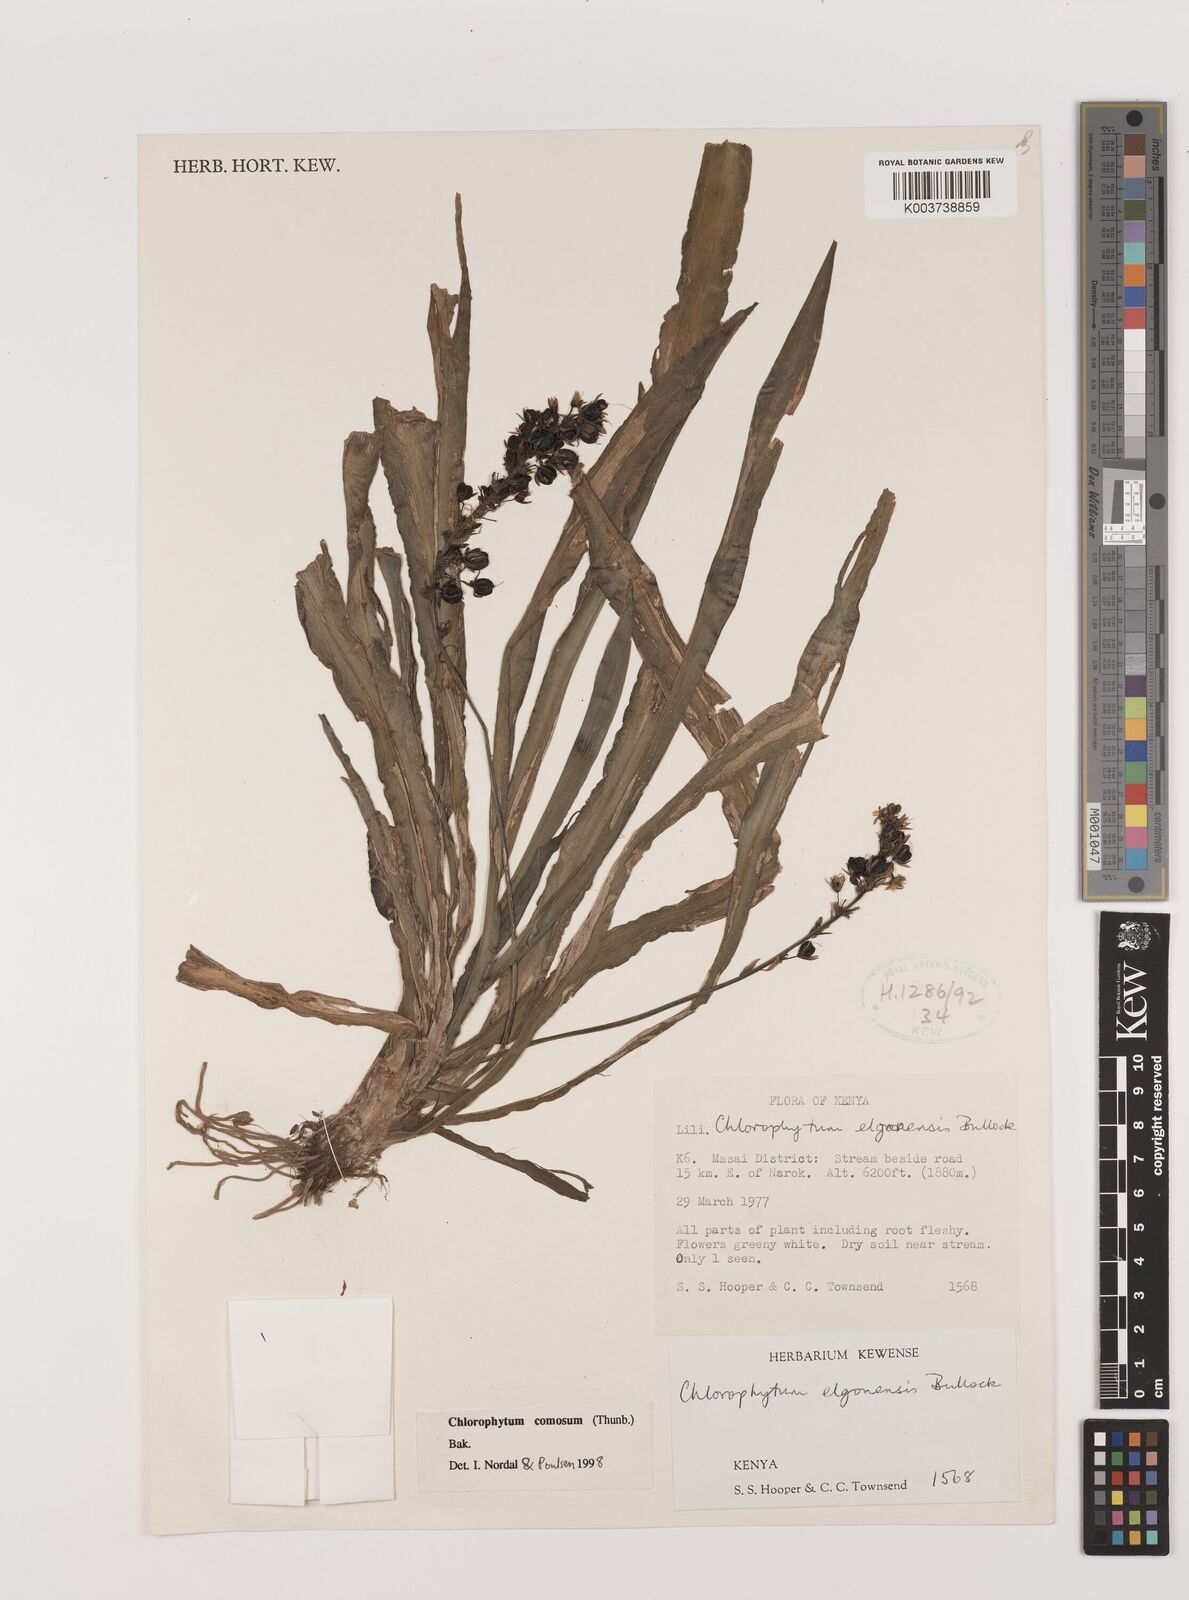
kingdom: Plantae
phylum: Tracheophyta
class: Liliopsida
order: Asparagales
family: Asparagaceae
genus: Chlorophytum
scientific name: Chlorophytum comosum
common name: Spider plant
